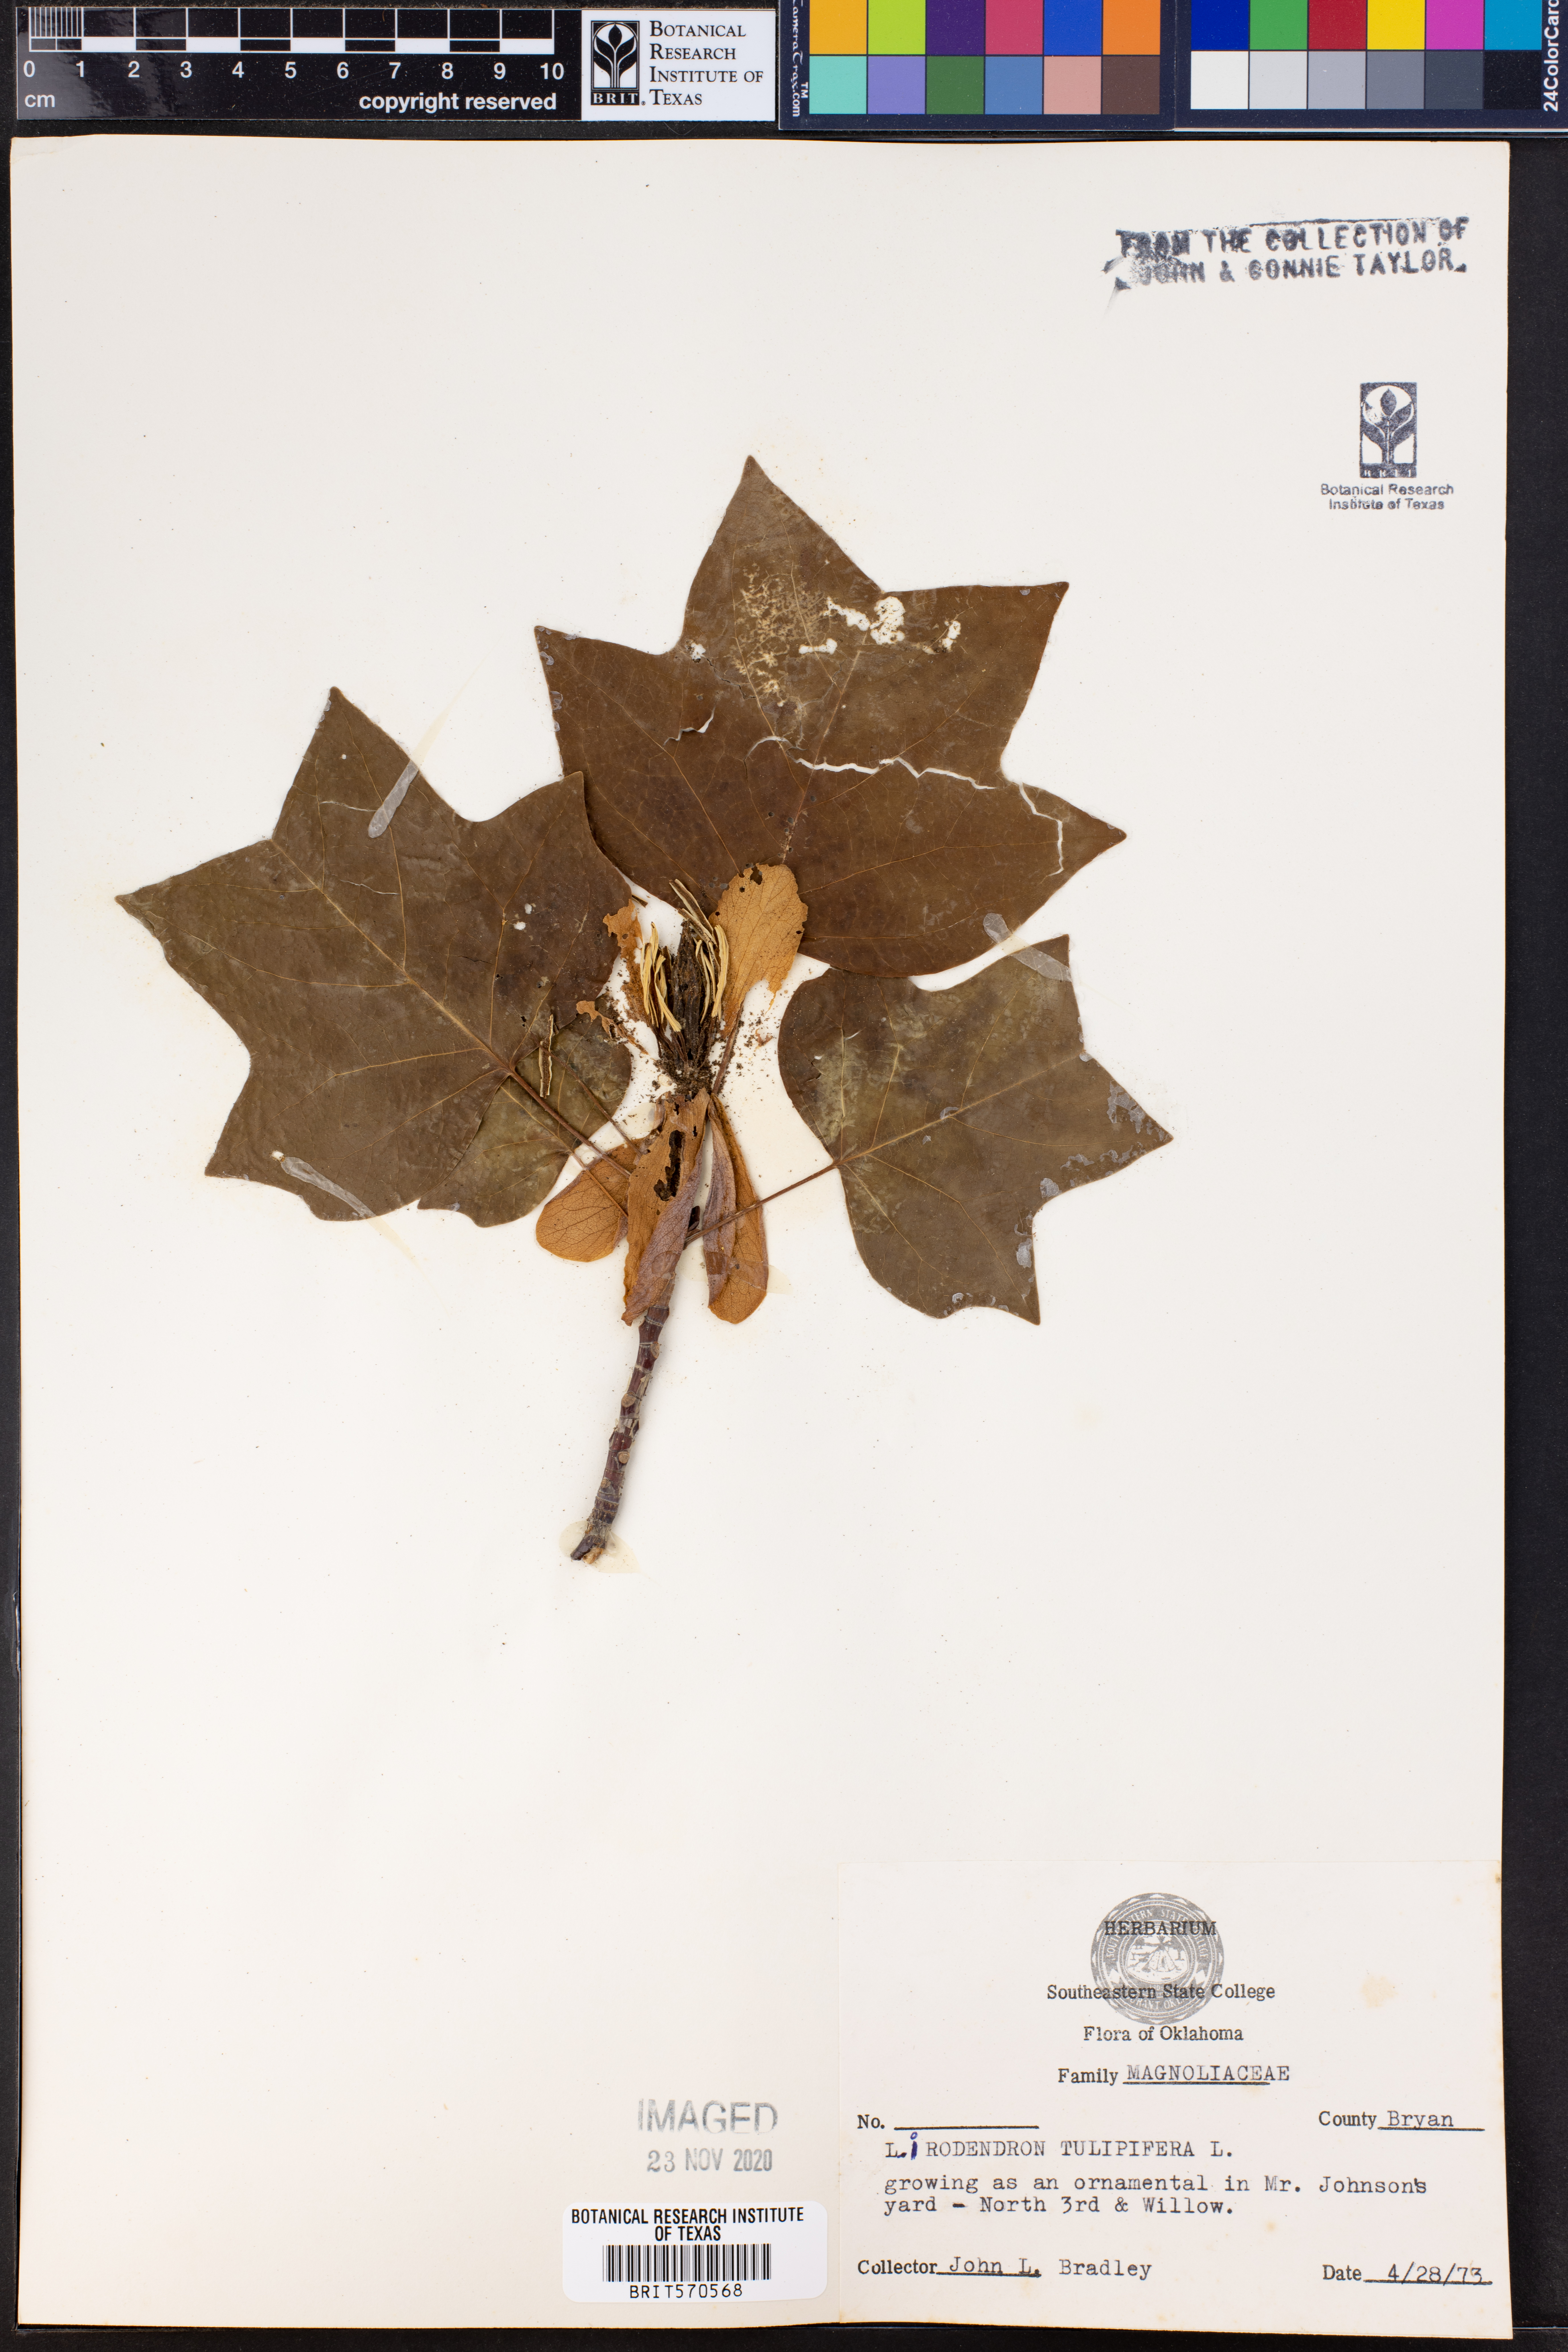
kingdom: Plantae
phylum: Tracheophyta
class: Magnoliopsida
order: Magnoliales
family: Magnoliaceae
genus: Liriodendron
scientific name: Liriodendron tulipifera
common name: Tulip tree
